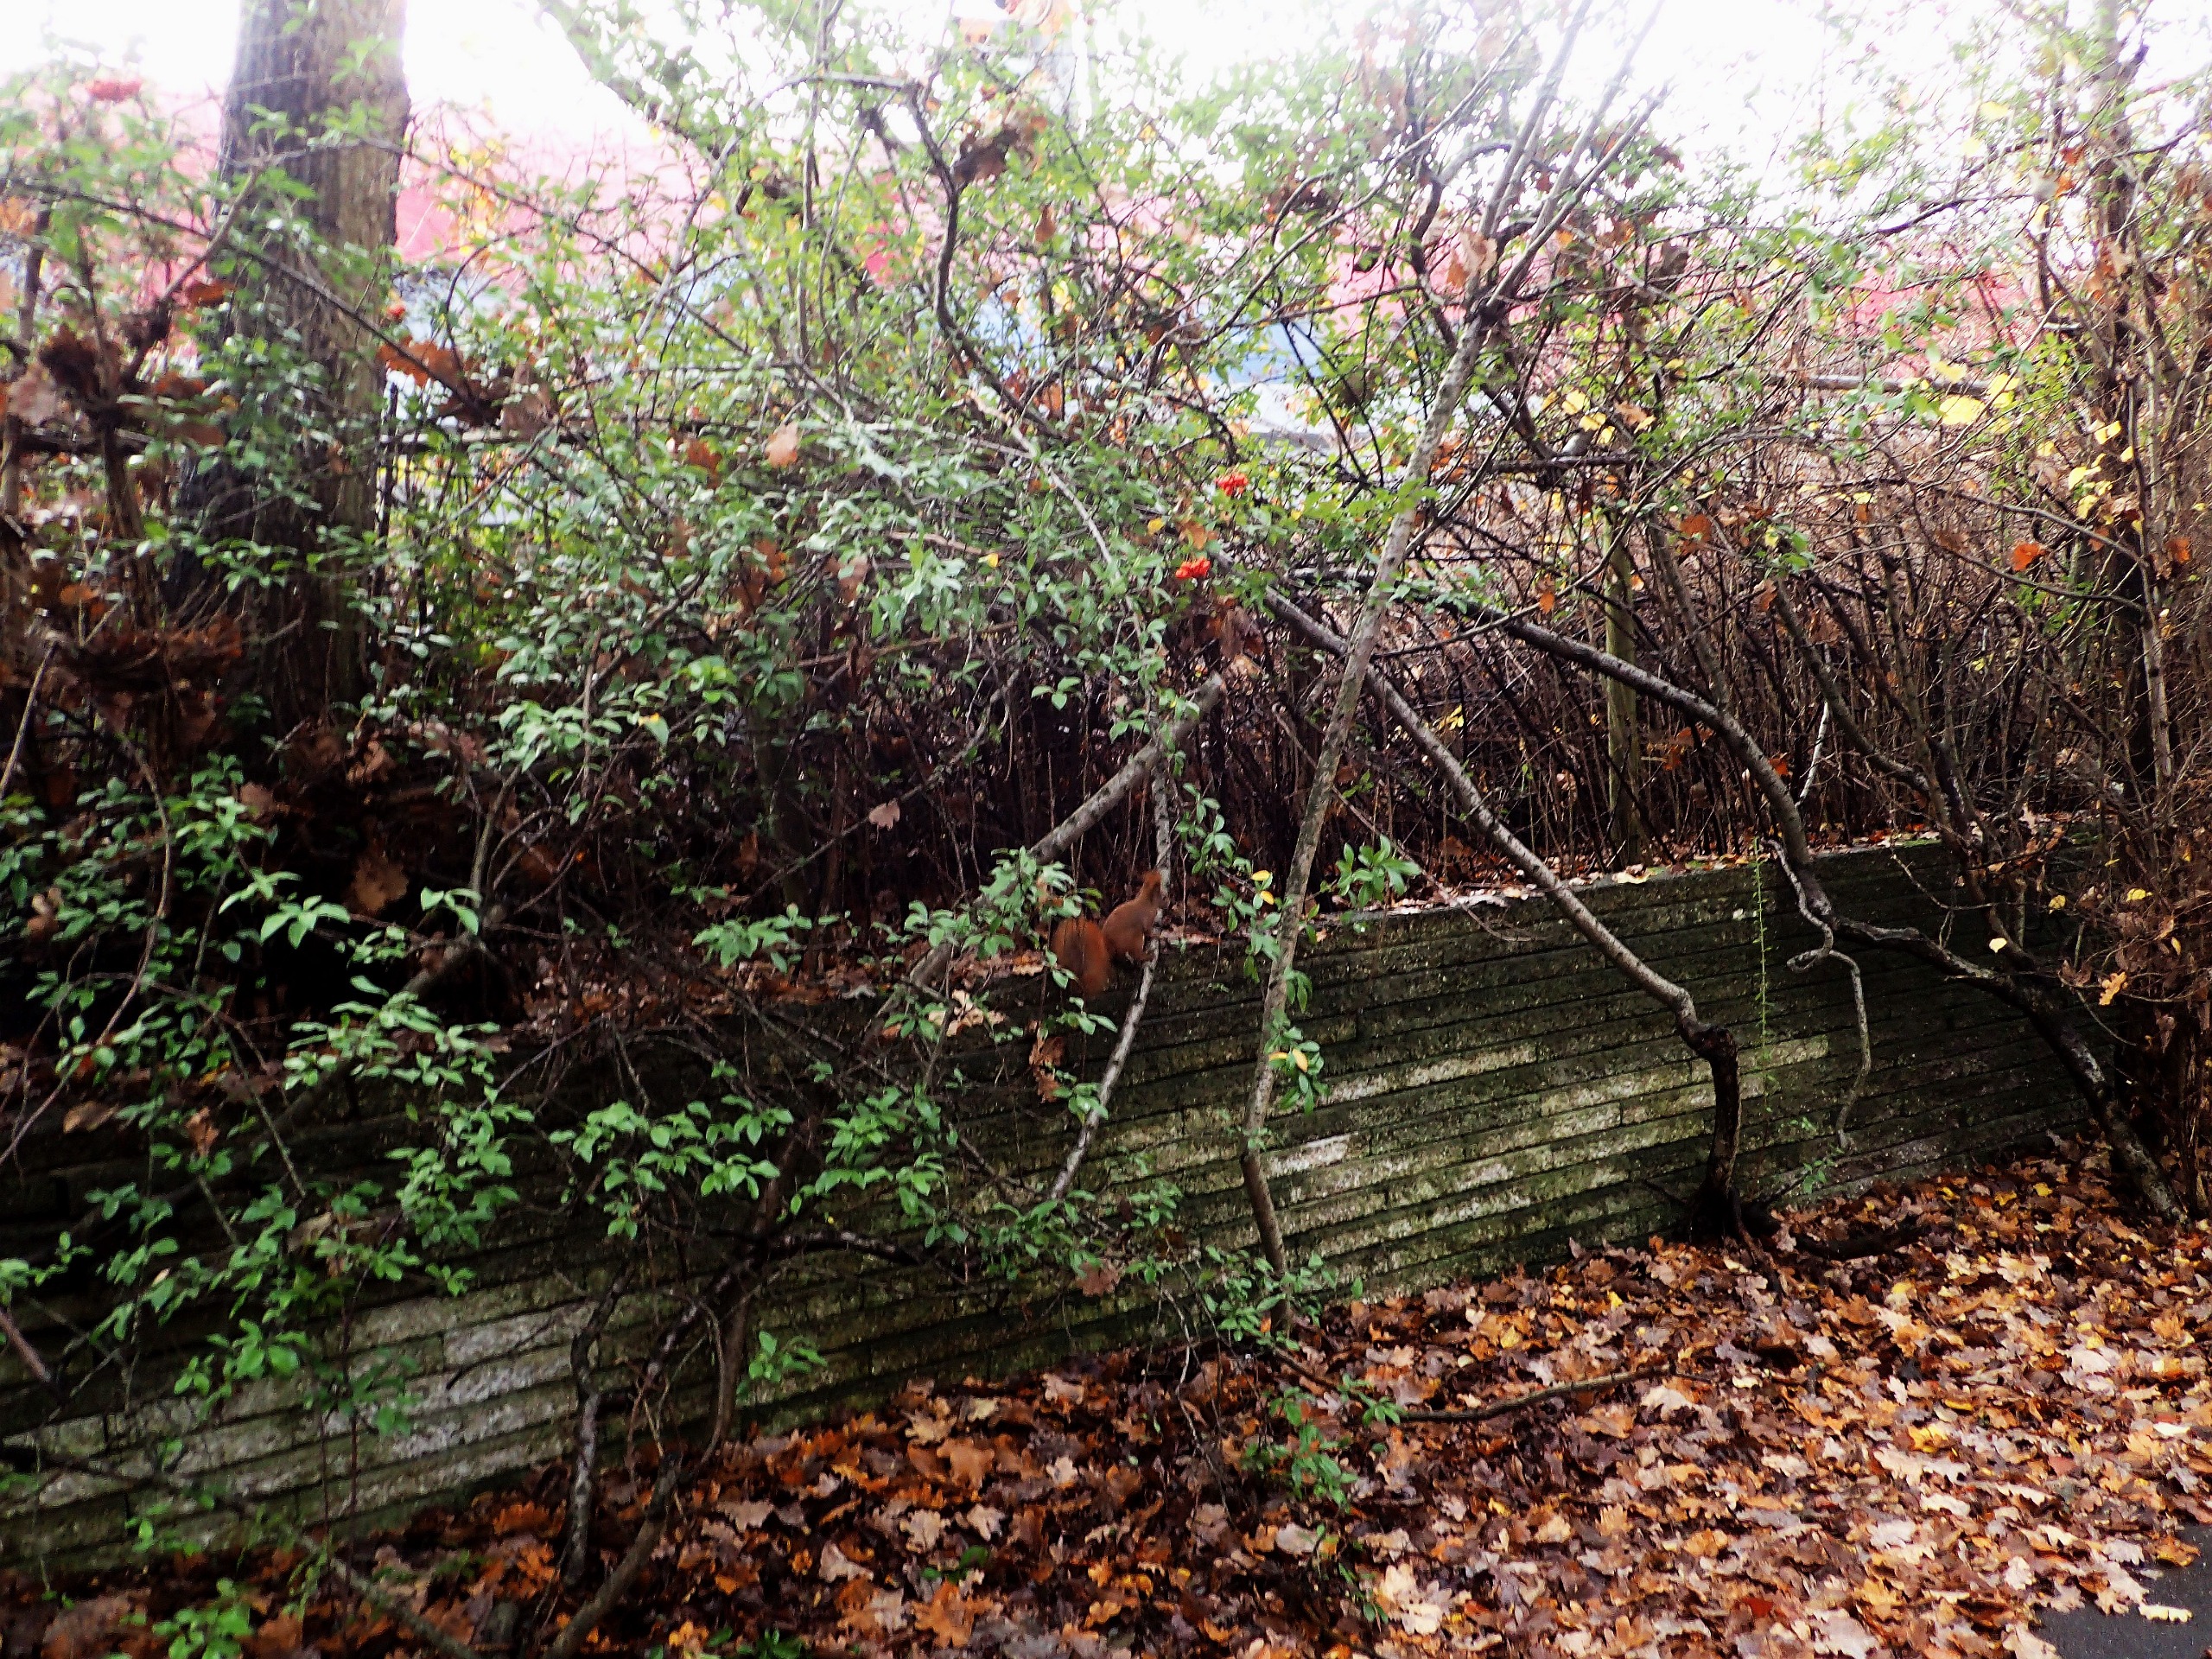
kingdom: Animalia
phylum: Chordata
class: Mammalia
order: Rodentia
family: Sciuridae
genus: Sciurus
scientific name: Sciurus vulgaris
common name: Egern
